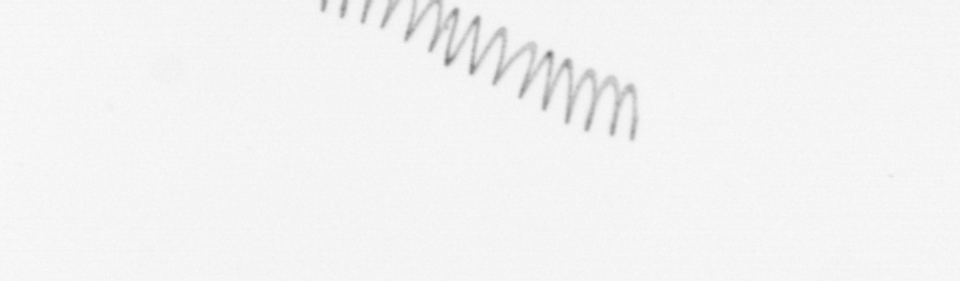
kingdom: Chromista
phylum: Ochrophyta
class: Bacillariophyceae
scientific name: Bacillariophyceae
